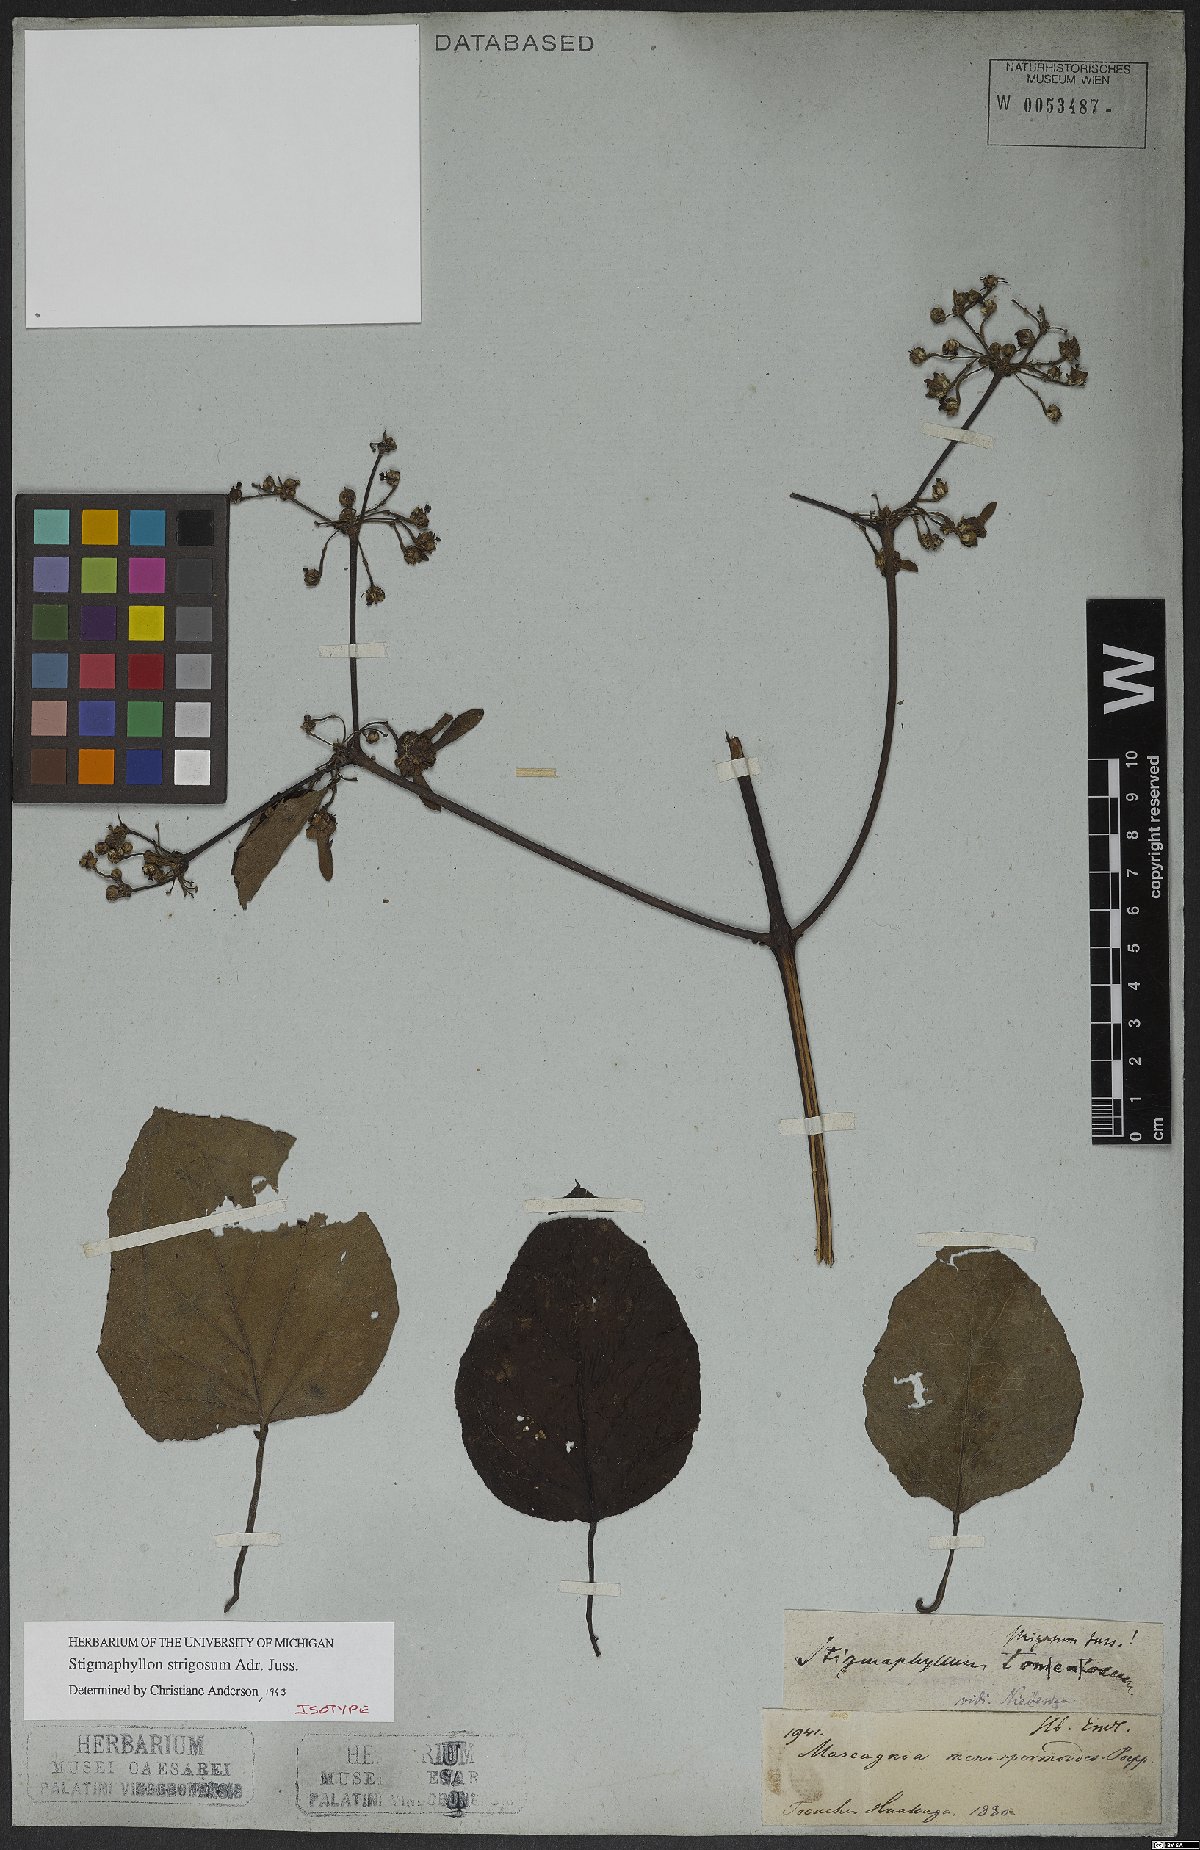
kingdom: Plantae
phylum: Tracheophyta
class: Magnoliopsida
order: Malpighiales
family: Malpighiaceae
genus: Stigmaphyllon
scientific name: Stigmaphyllon strigosum
